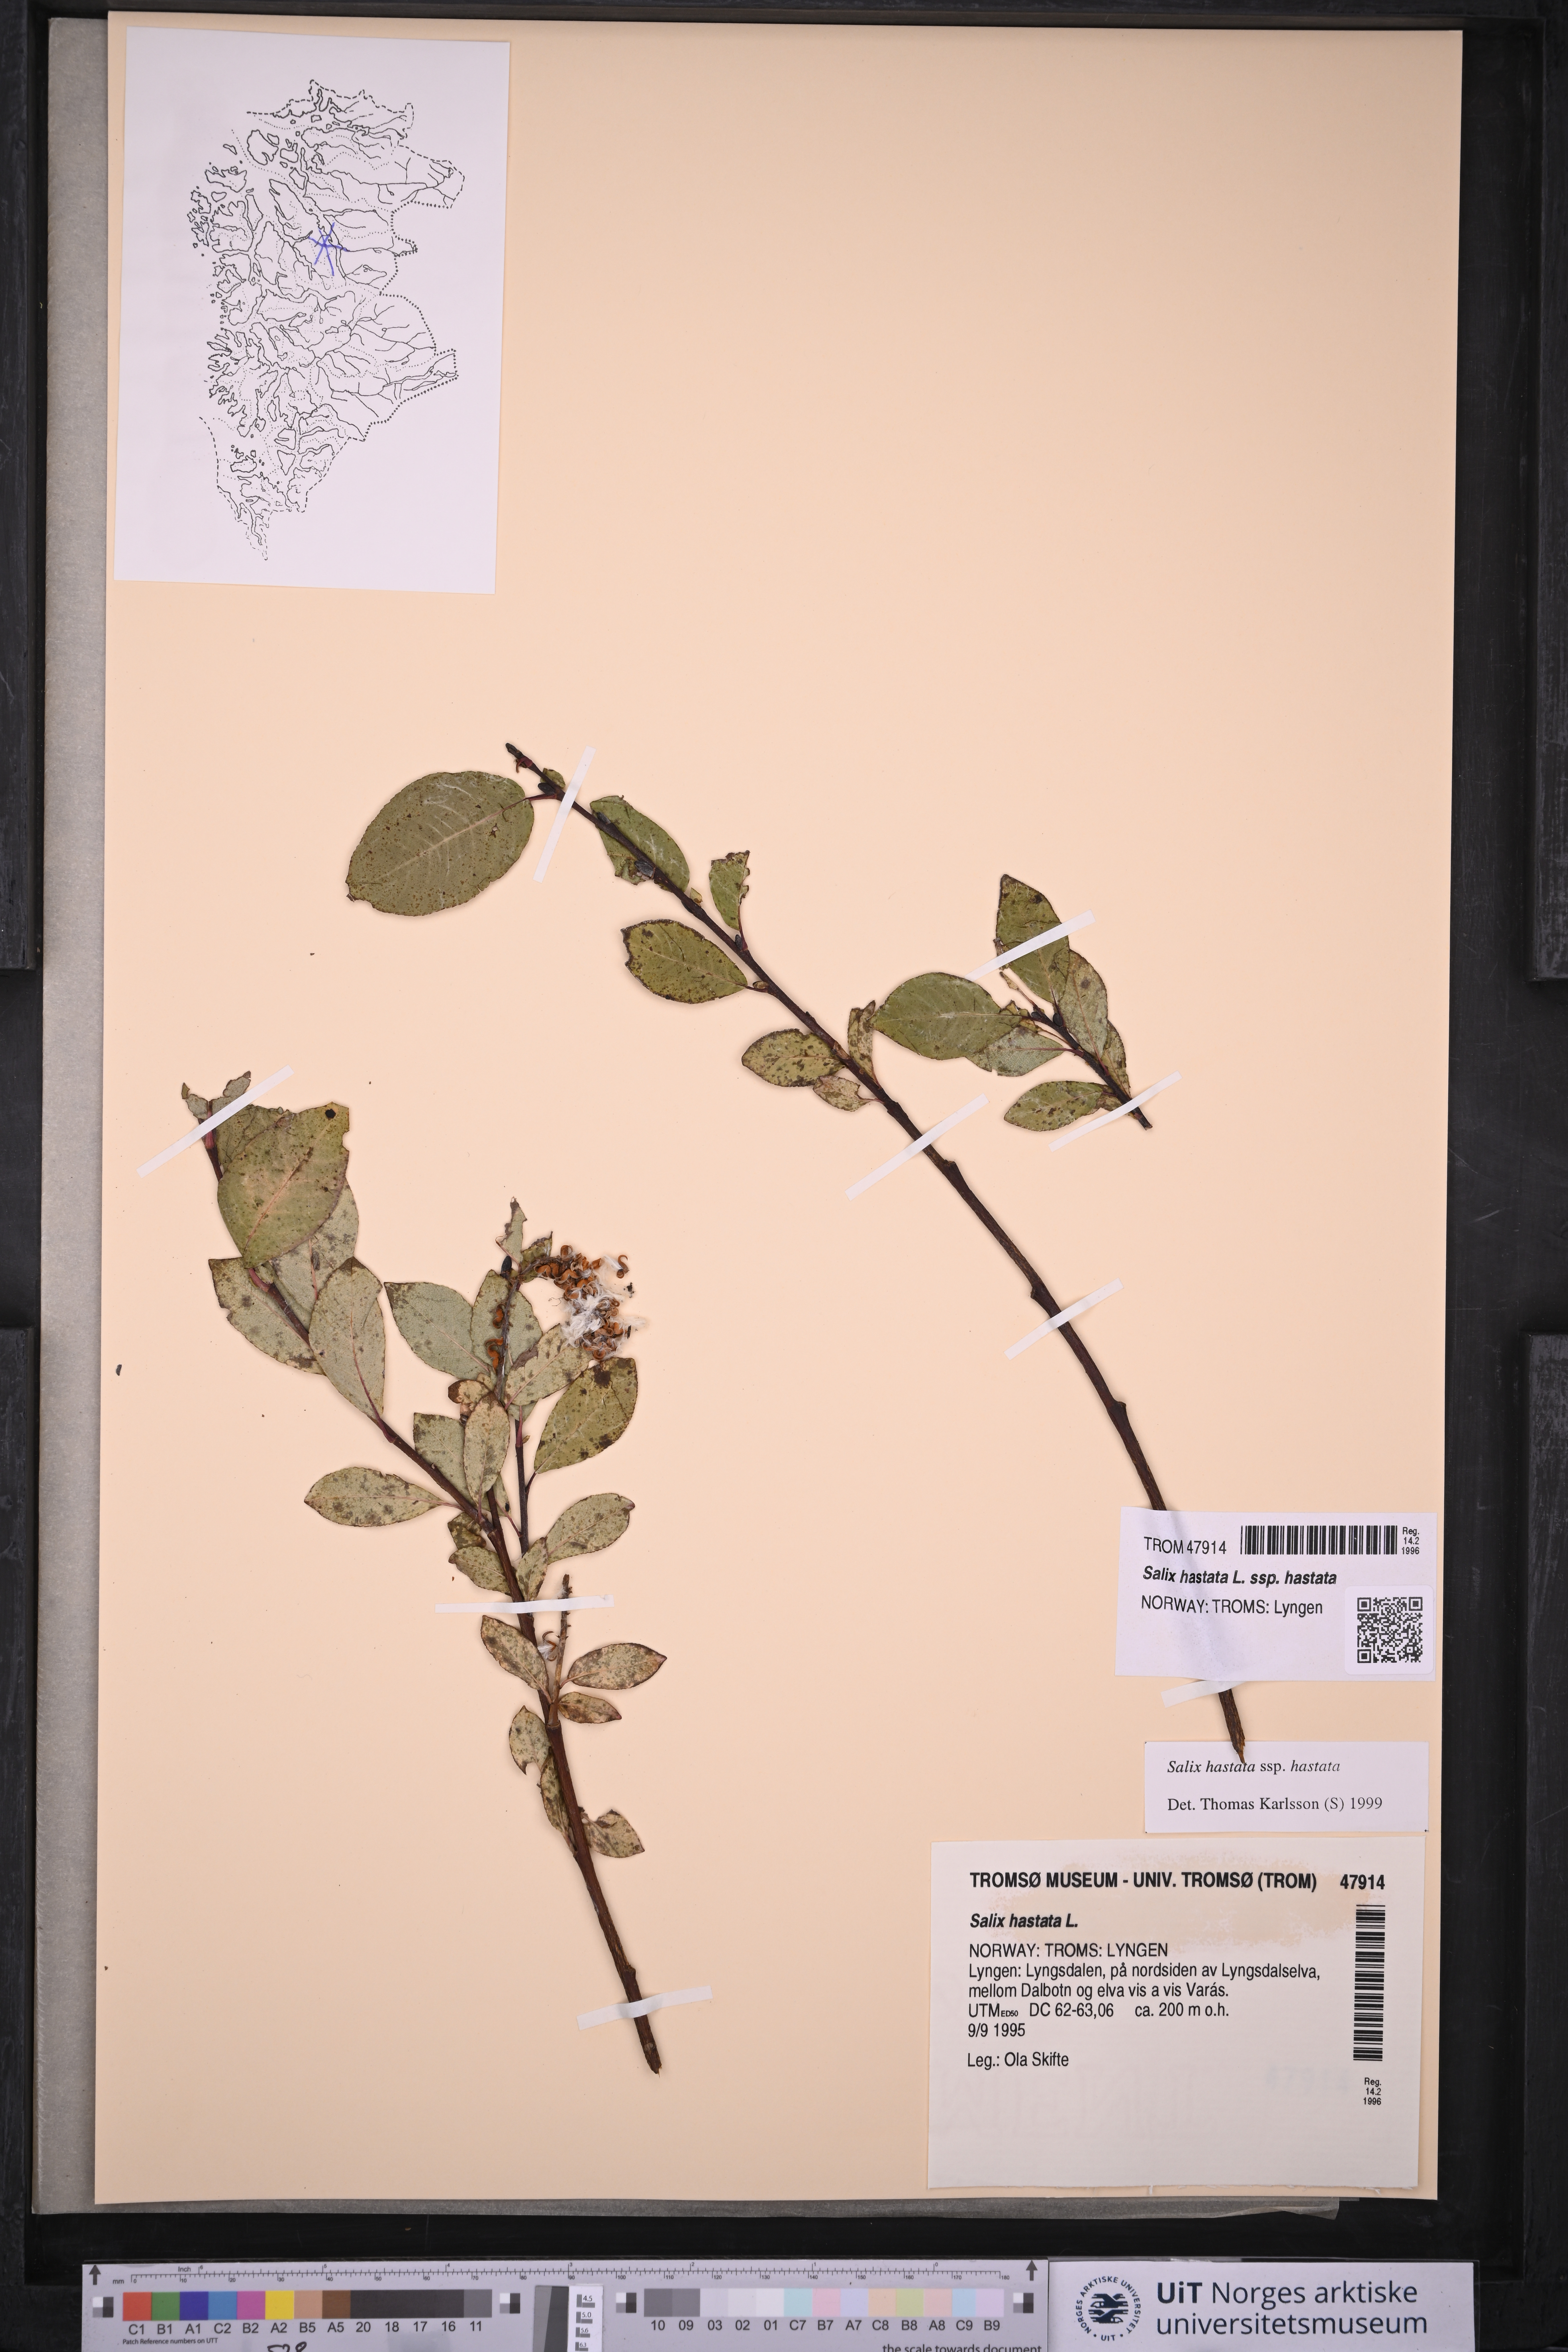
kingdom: Plantae
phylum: Tracheophyta
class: Magnoliopsida
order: Malpighiales
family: Salicaceae
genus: Salix
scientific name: Salix hastata
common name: Halberd willow
